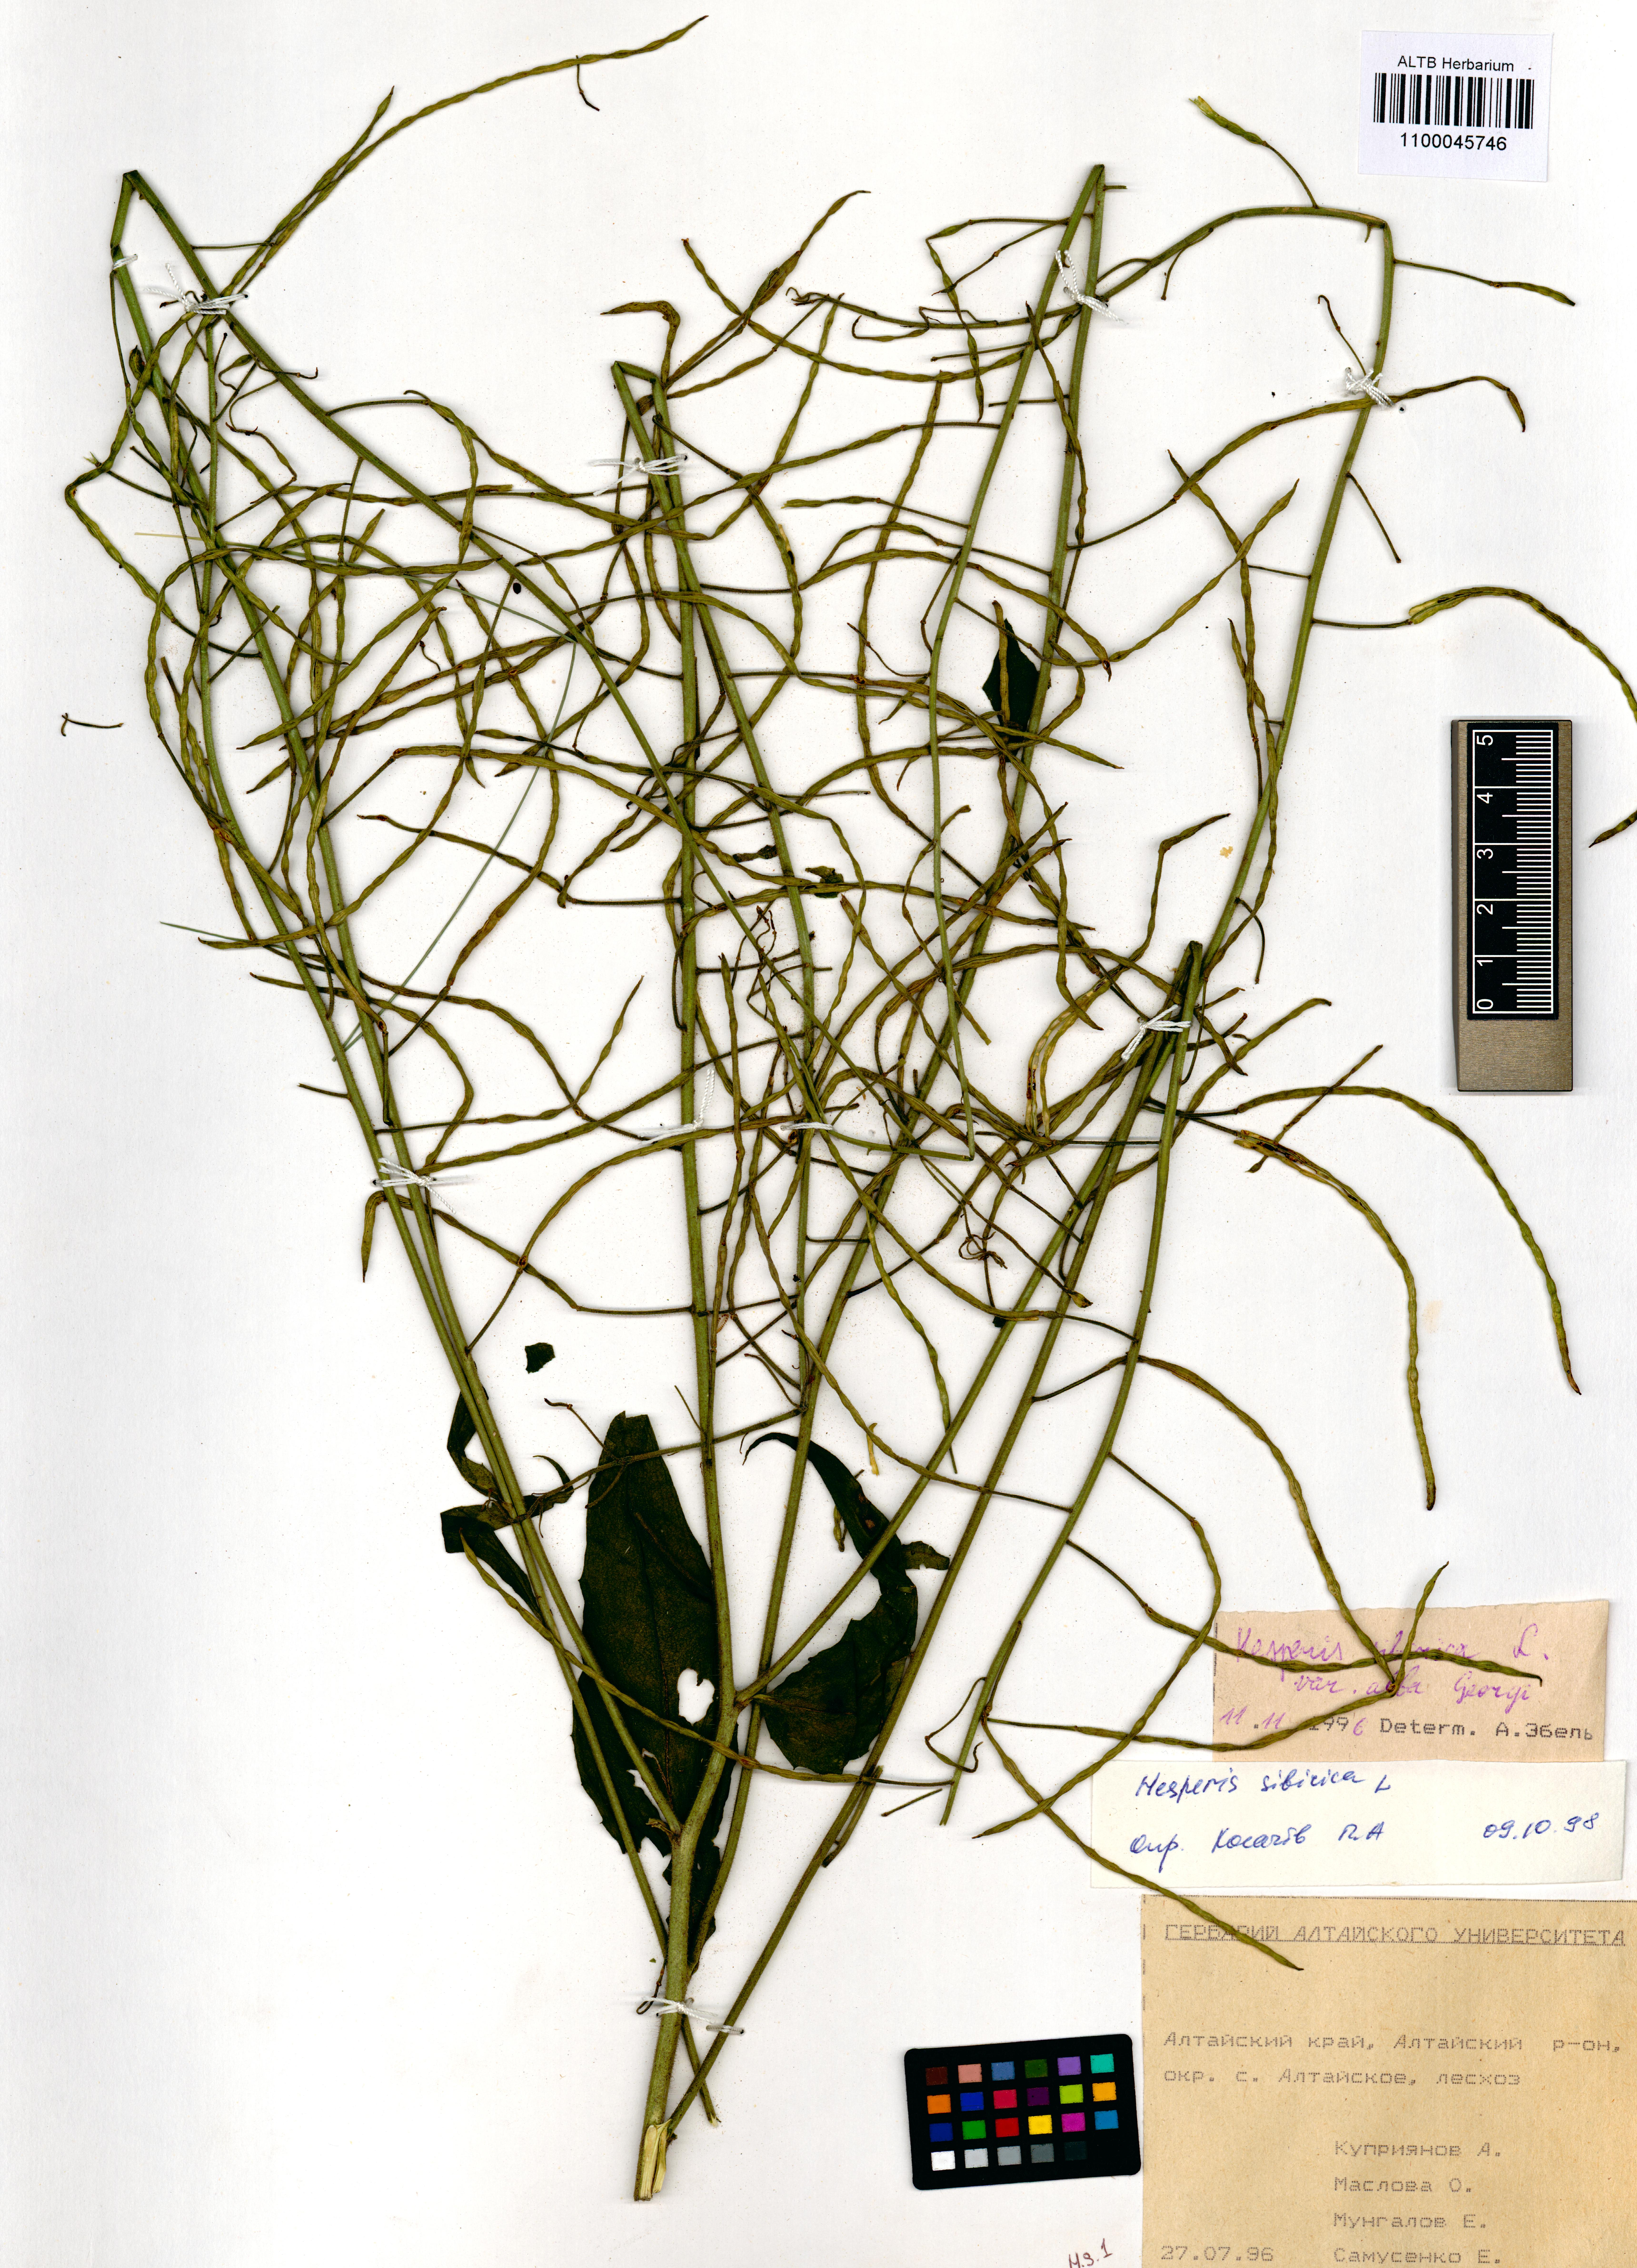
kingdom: Plantae
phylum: Tracheophyta
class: Magnoliopsida
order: Brassicales
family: Brassicaceae
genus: Hesperis
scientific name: Hesperis sibirica
